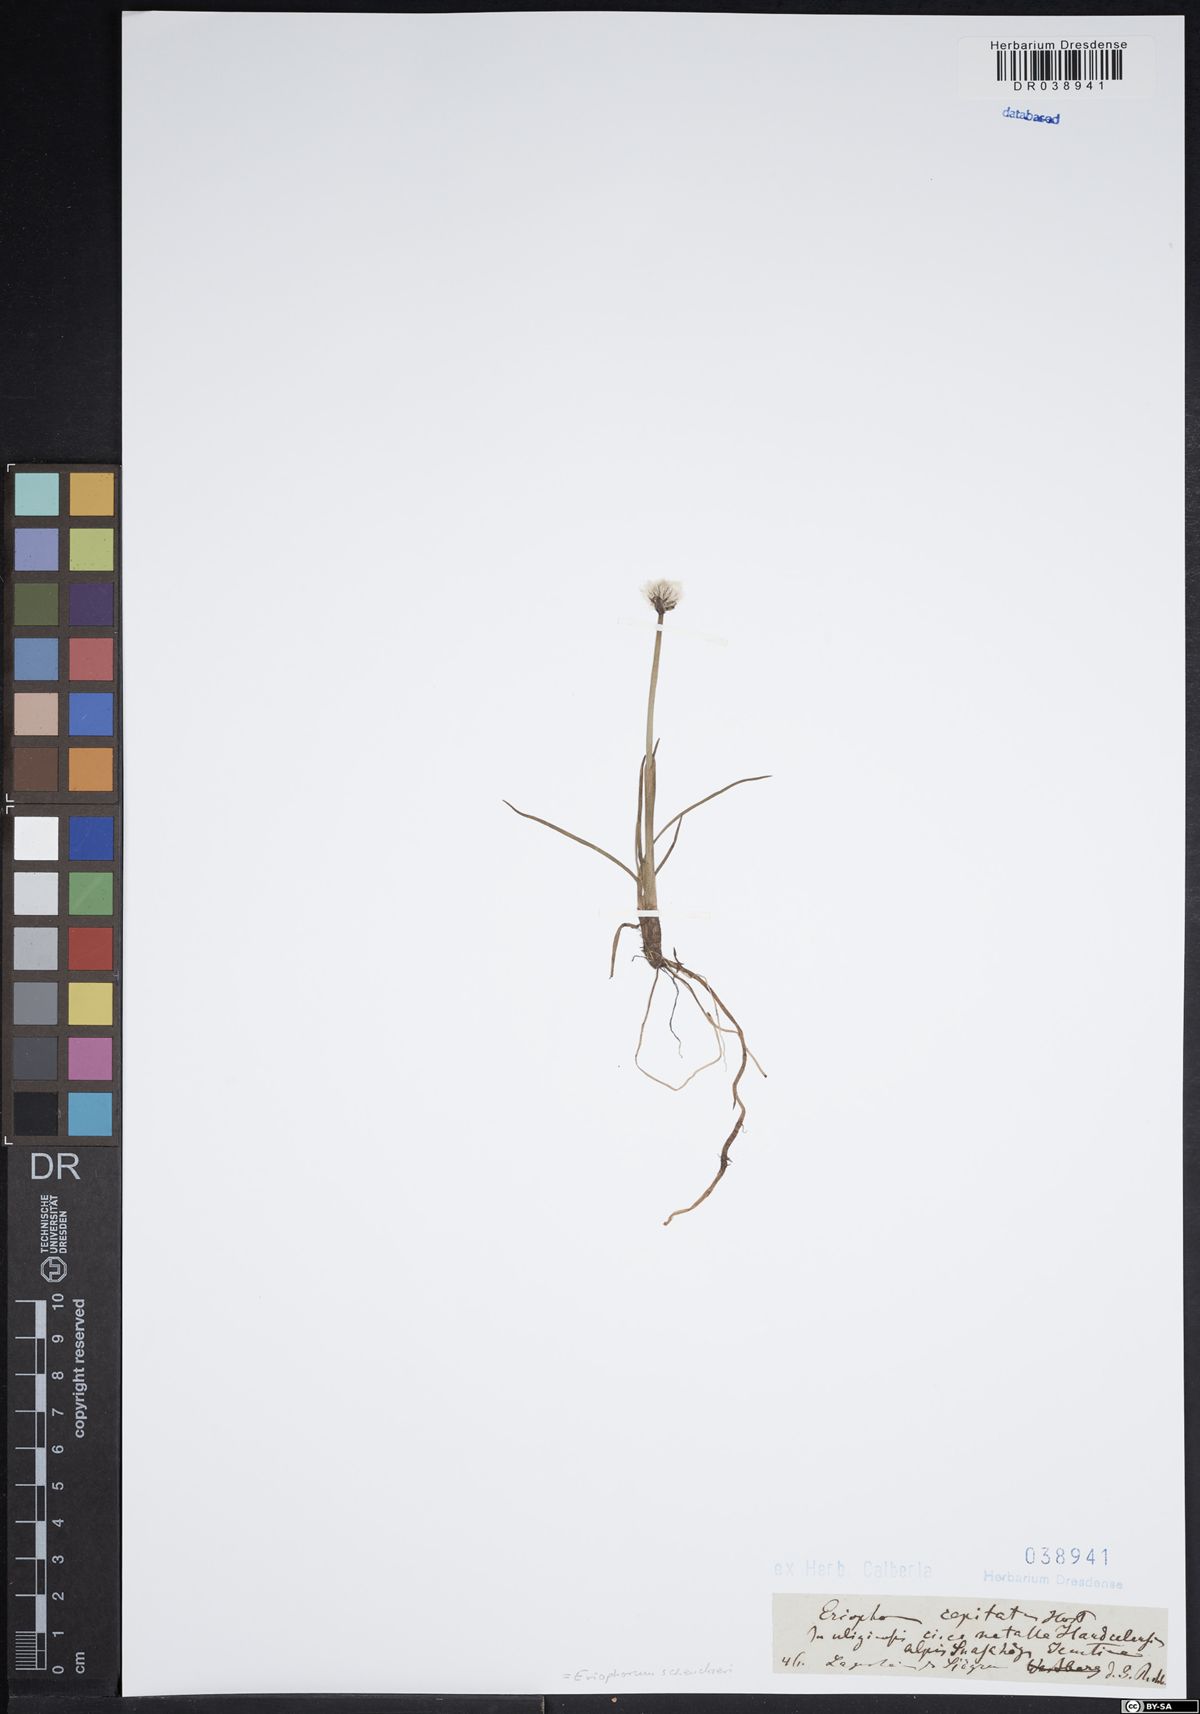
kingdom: Plantae
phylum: Tracheophyta
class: Liliopsida
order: Poales
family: Cyperaceae
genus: Eriophorum
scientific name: Eriophorum scheuchzeri
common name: Scheuchzer's cottongrass
